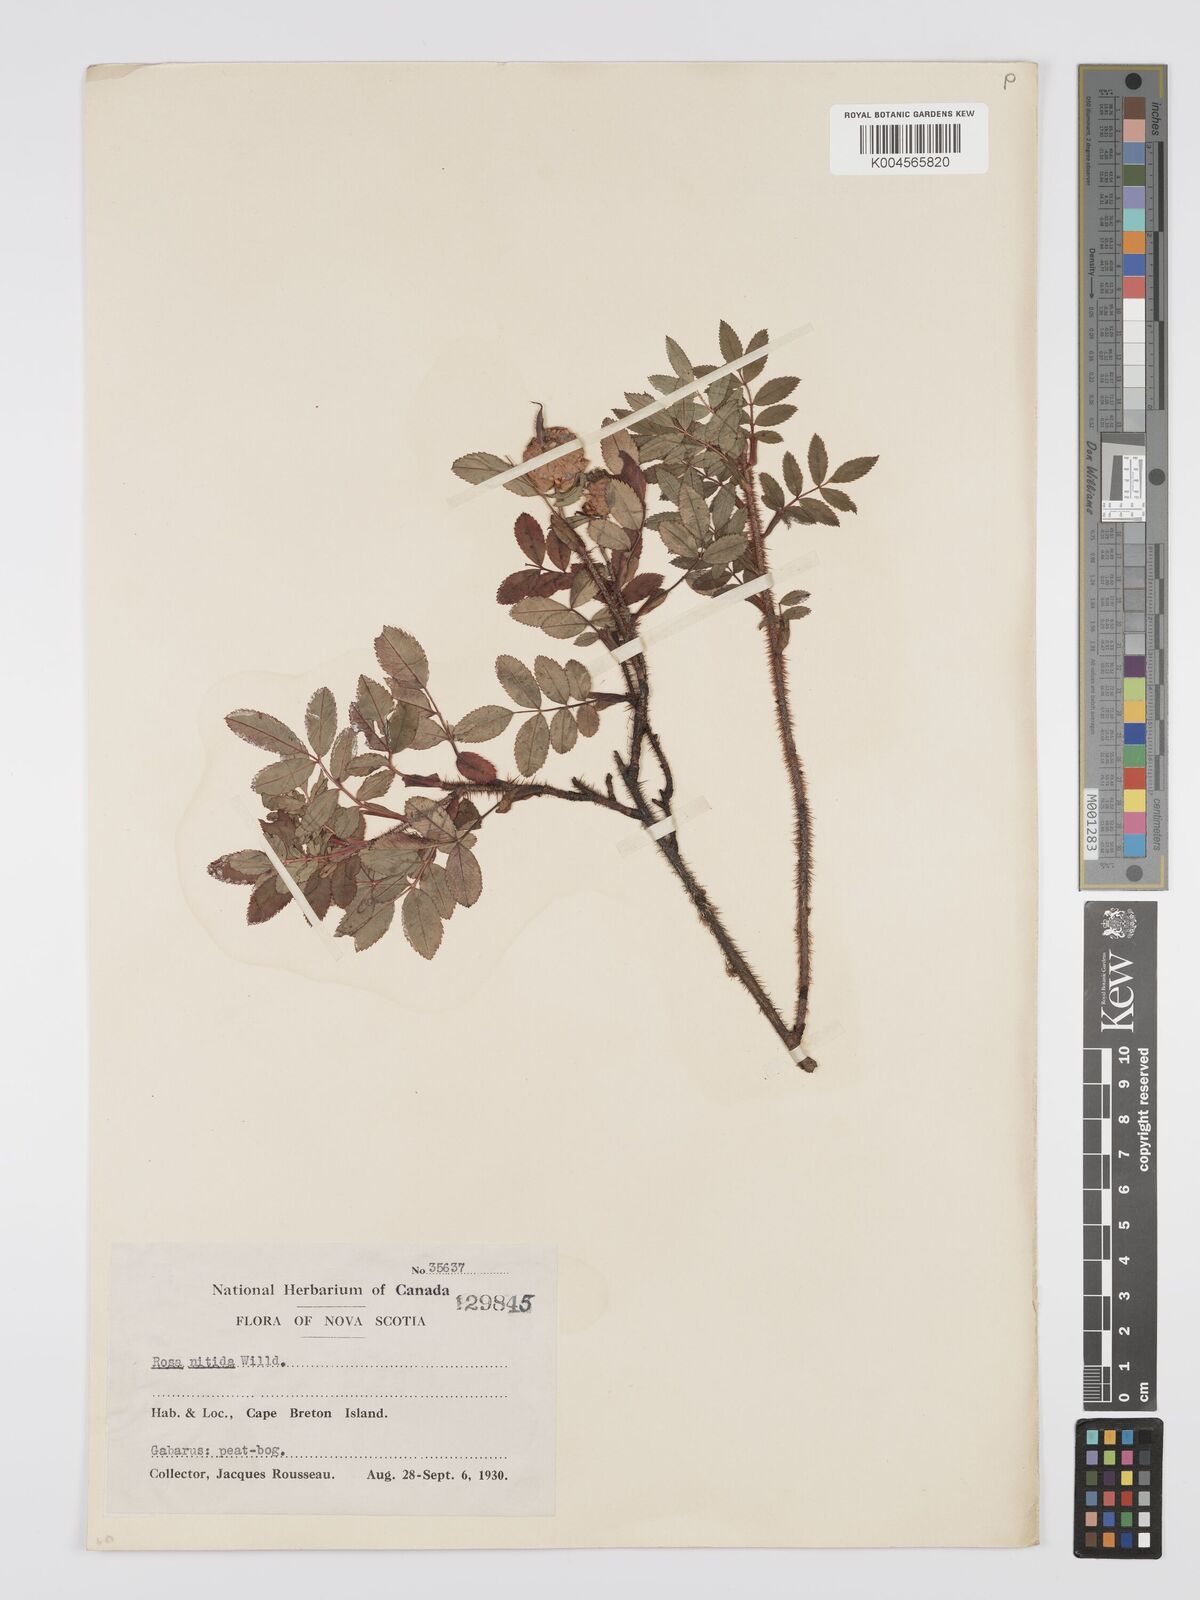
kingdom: Plantae
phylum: Tracheophyta
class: Magnoliopsida
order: Rosales
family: Rosaceae
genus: Rosa
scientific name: Rosa nitida
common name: New england rose
